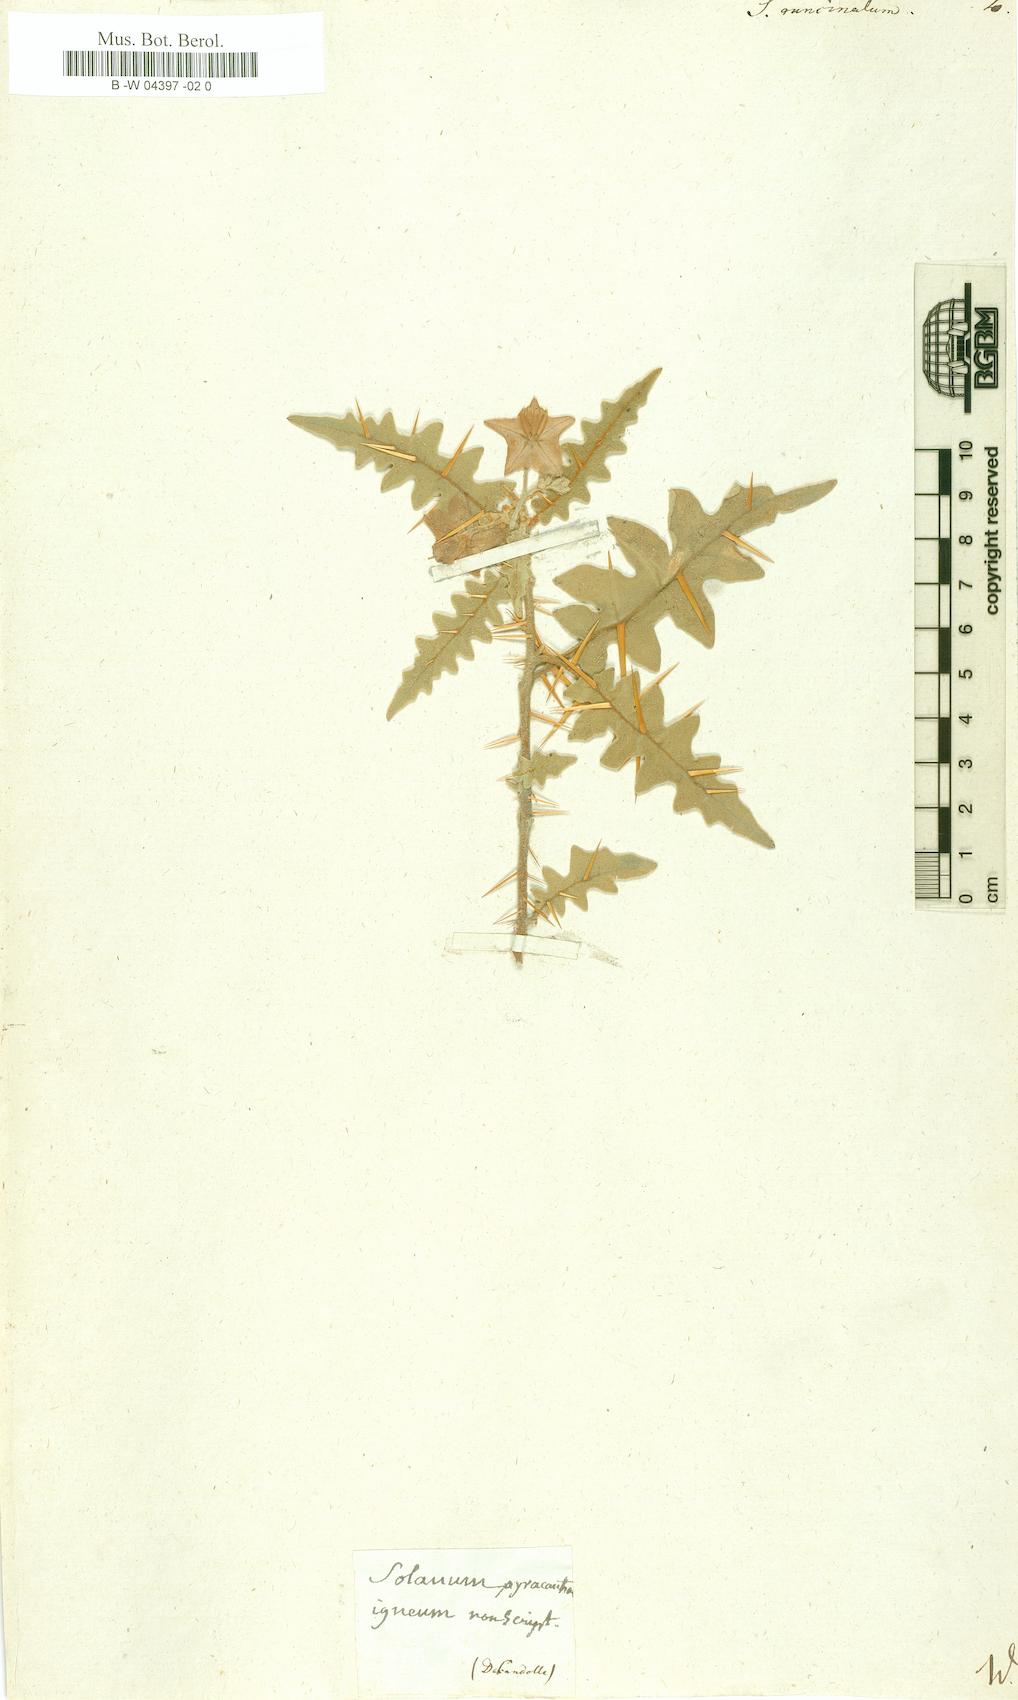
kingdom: Plantae
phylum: Tracheophyta
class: Magnoliopsida
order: Solanales
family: Solanaceae
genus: Solanum
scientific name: Solanum
